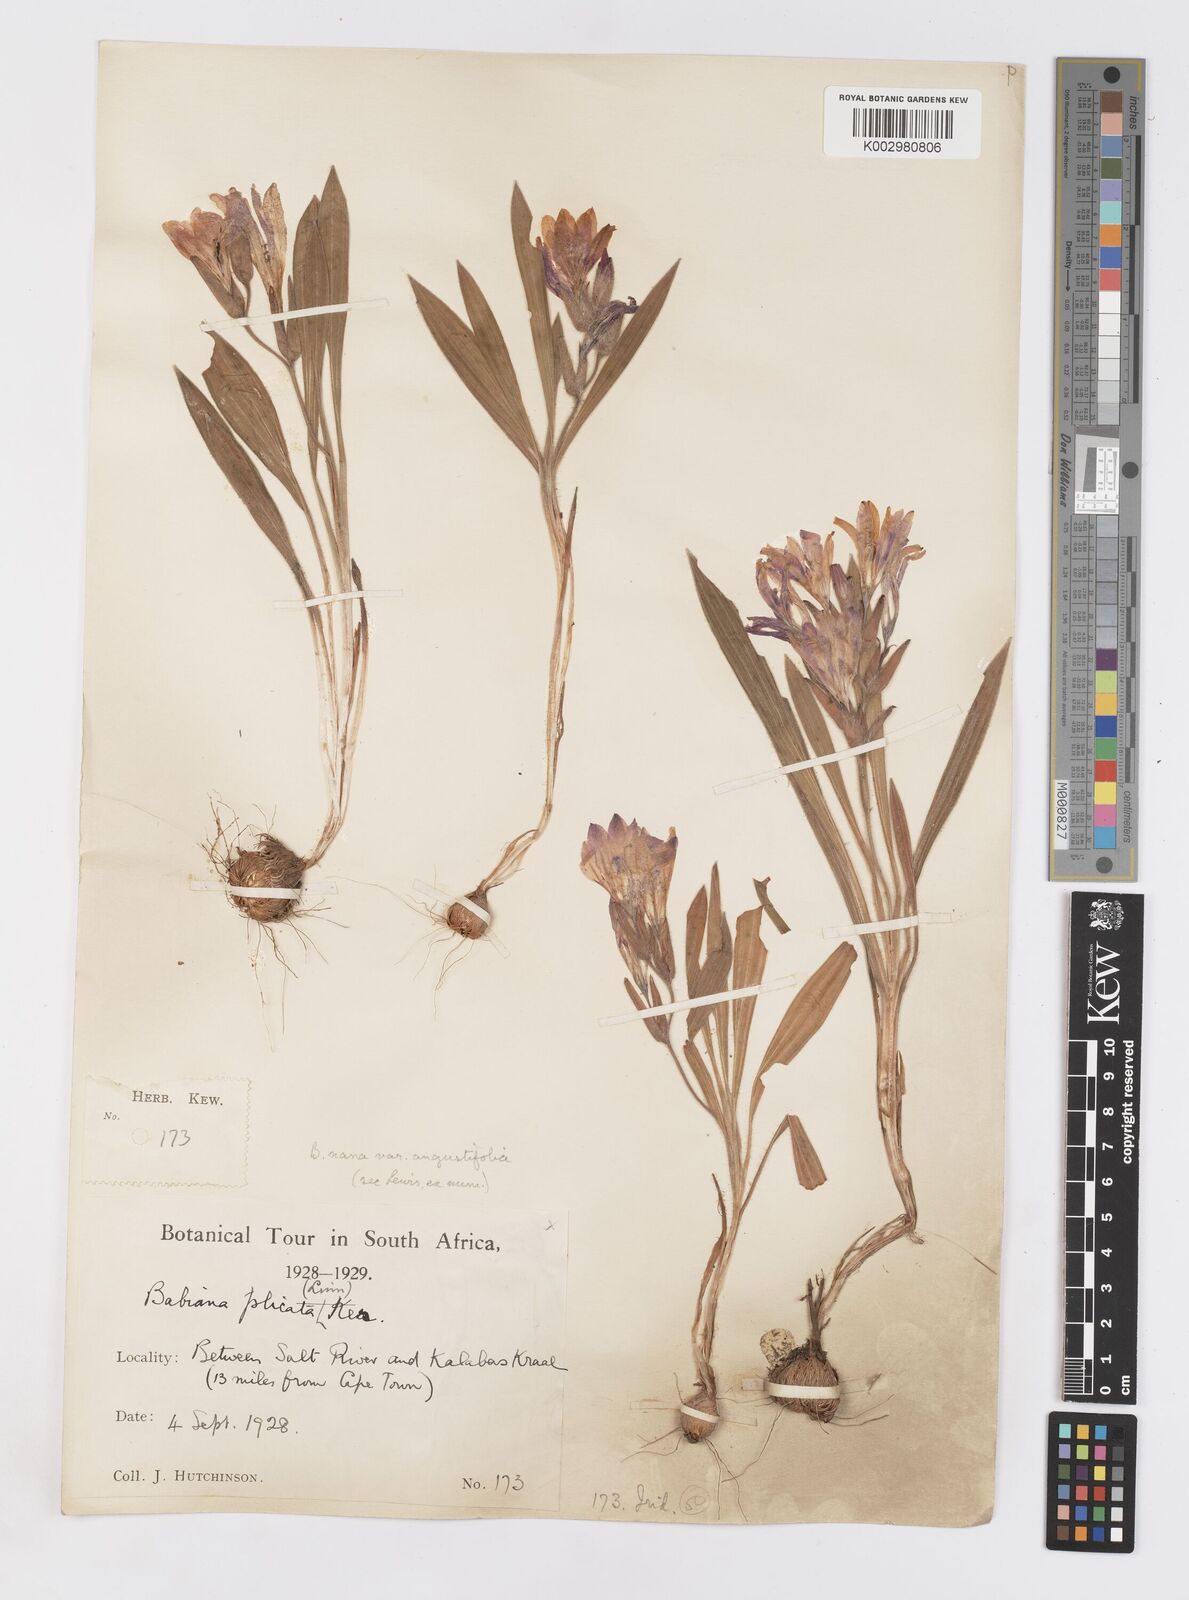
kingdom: Plantae
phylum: Tracheophyta
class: Liliopsida
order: Asparagales
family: Iridaceae
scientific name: Iridaceae
